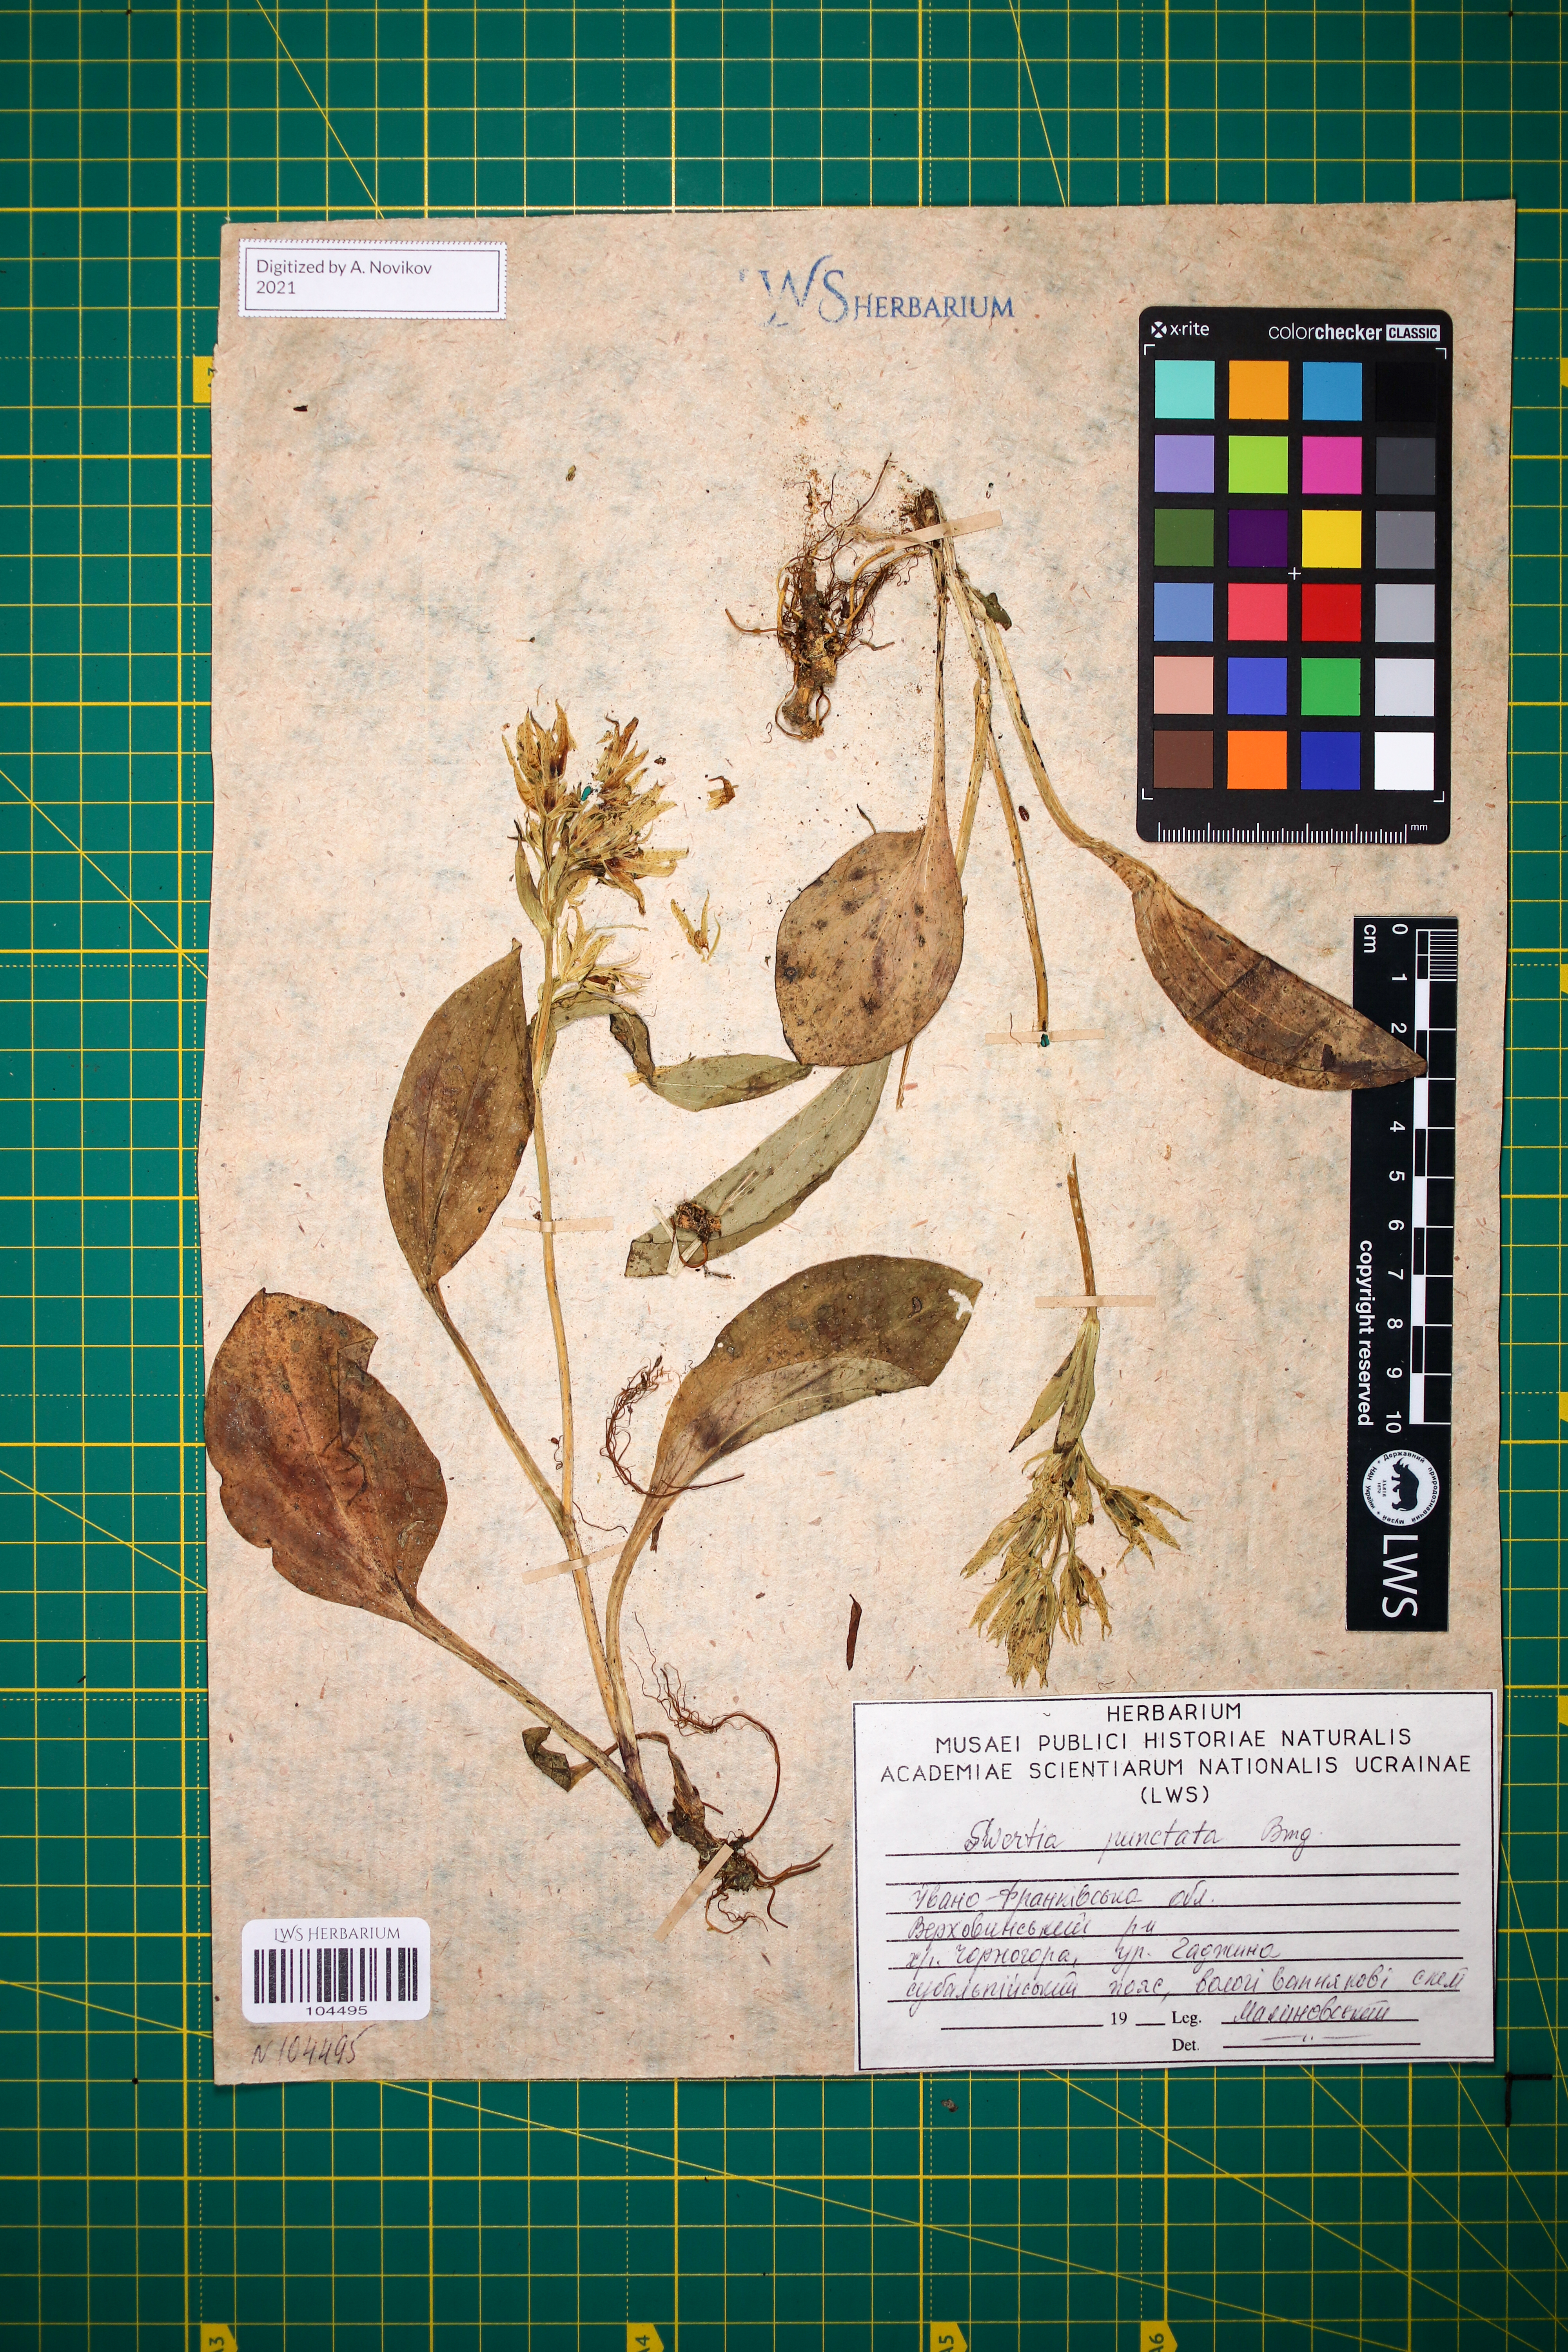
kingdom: Plantae
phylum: Tracheophyta
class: Magnoliopsida
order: Gentianales
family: Gentianaceae
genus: Swertia
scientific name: Swertia perennis
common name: Alpine bog swertia
